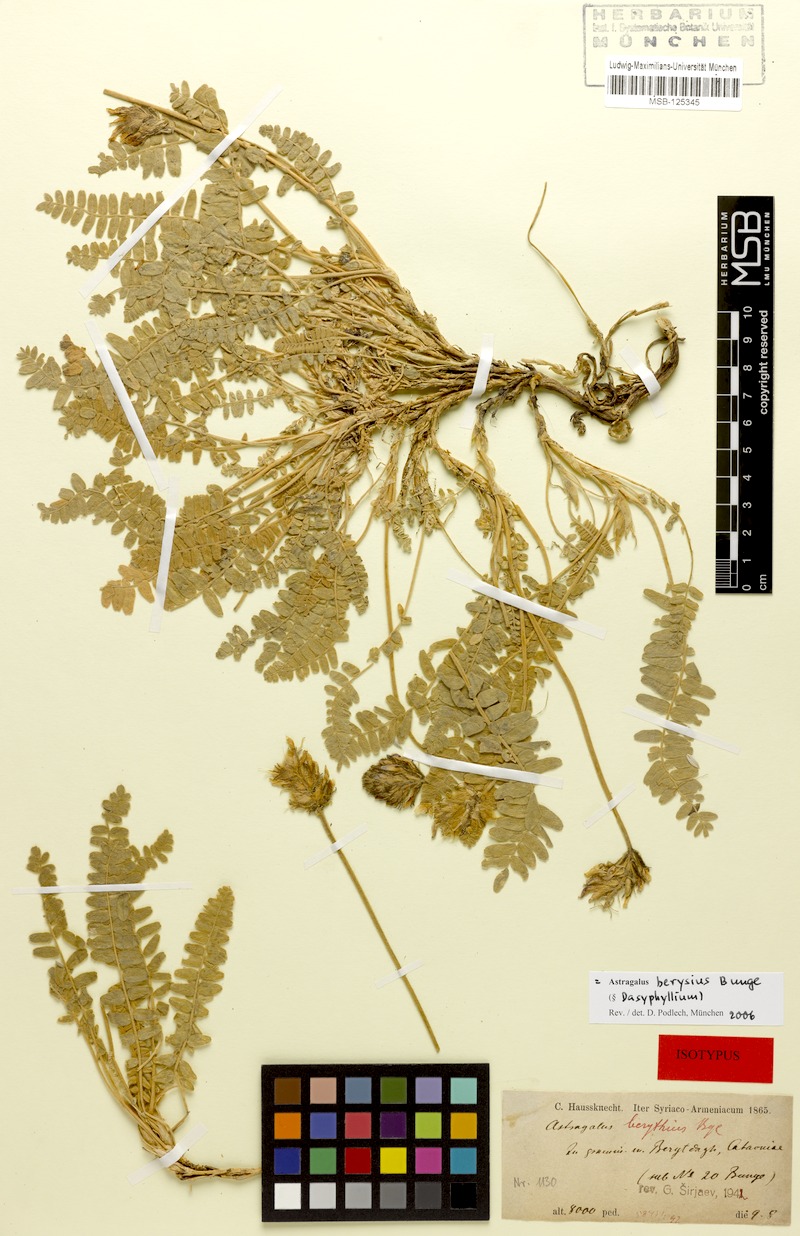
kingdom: Plantae
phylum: Tracheophyta
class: Magnoliopsida
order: Fabales
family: Fabaceae
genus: Astragalus
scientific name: Astragalus berysius
